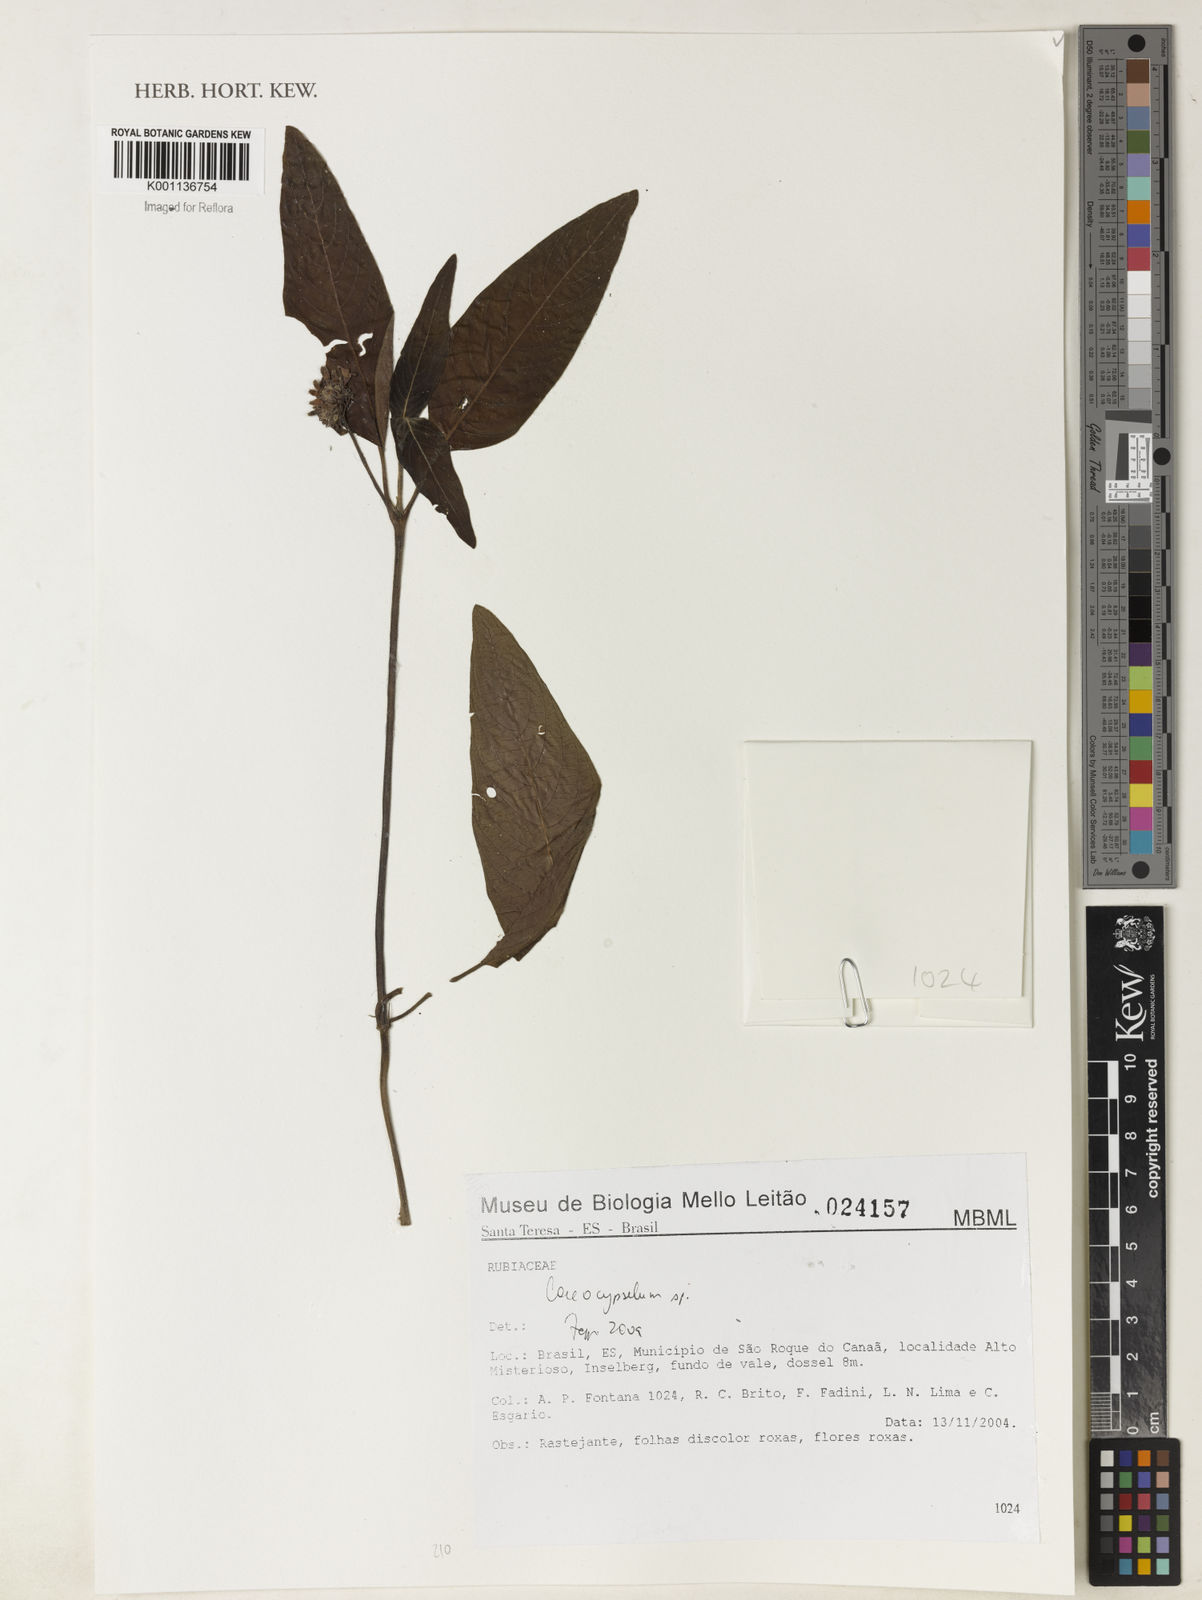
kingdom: Plantae
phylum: Tracheophyta
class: Magnoliopsida
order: Gentianales
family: Rubiaceae
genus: Coccocypselum
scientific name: Coccocypselum
